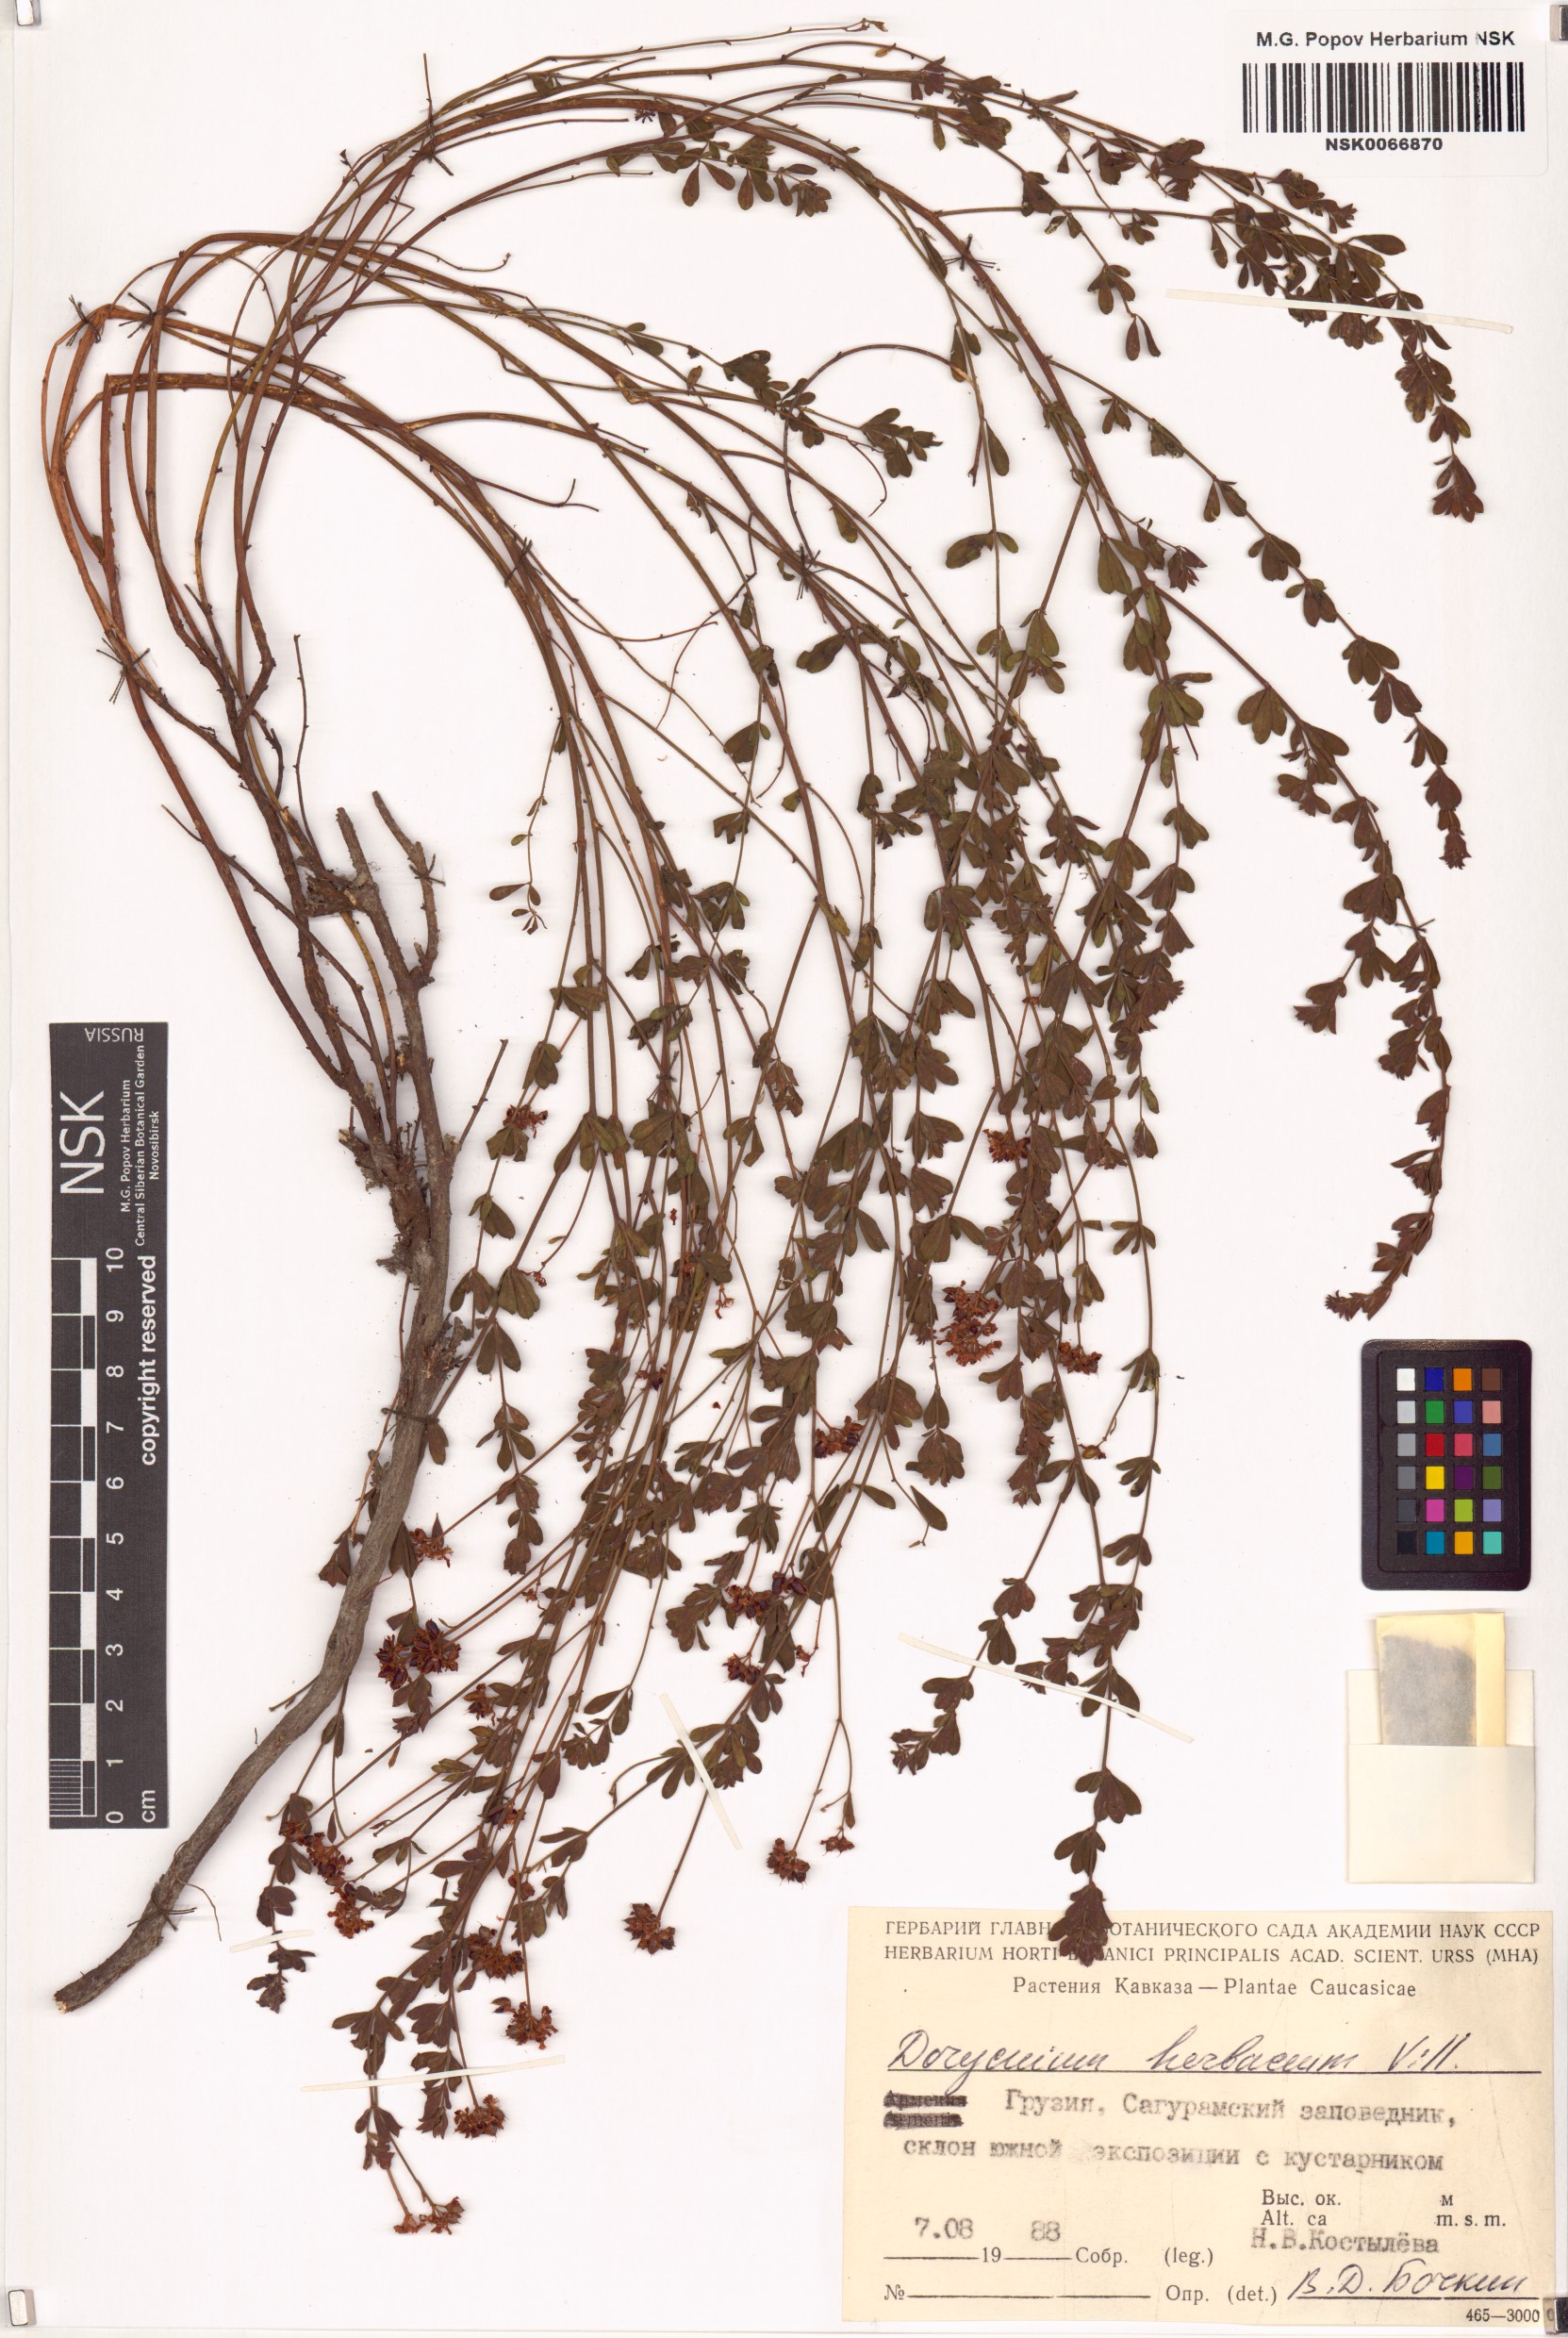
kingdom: Plantae
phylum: Tracheophyta
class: Magnoliopsida
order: Fabales
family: Fabaceae
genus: Lotus
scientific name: Lotus herbaceus
